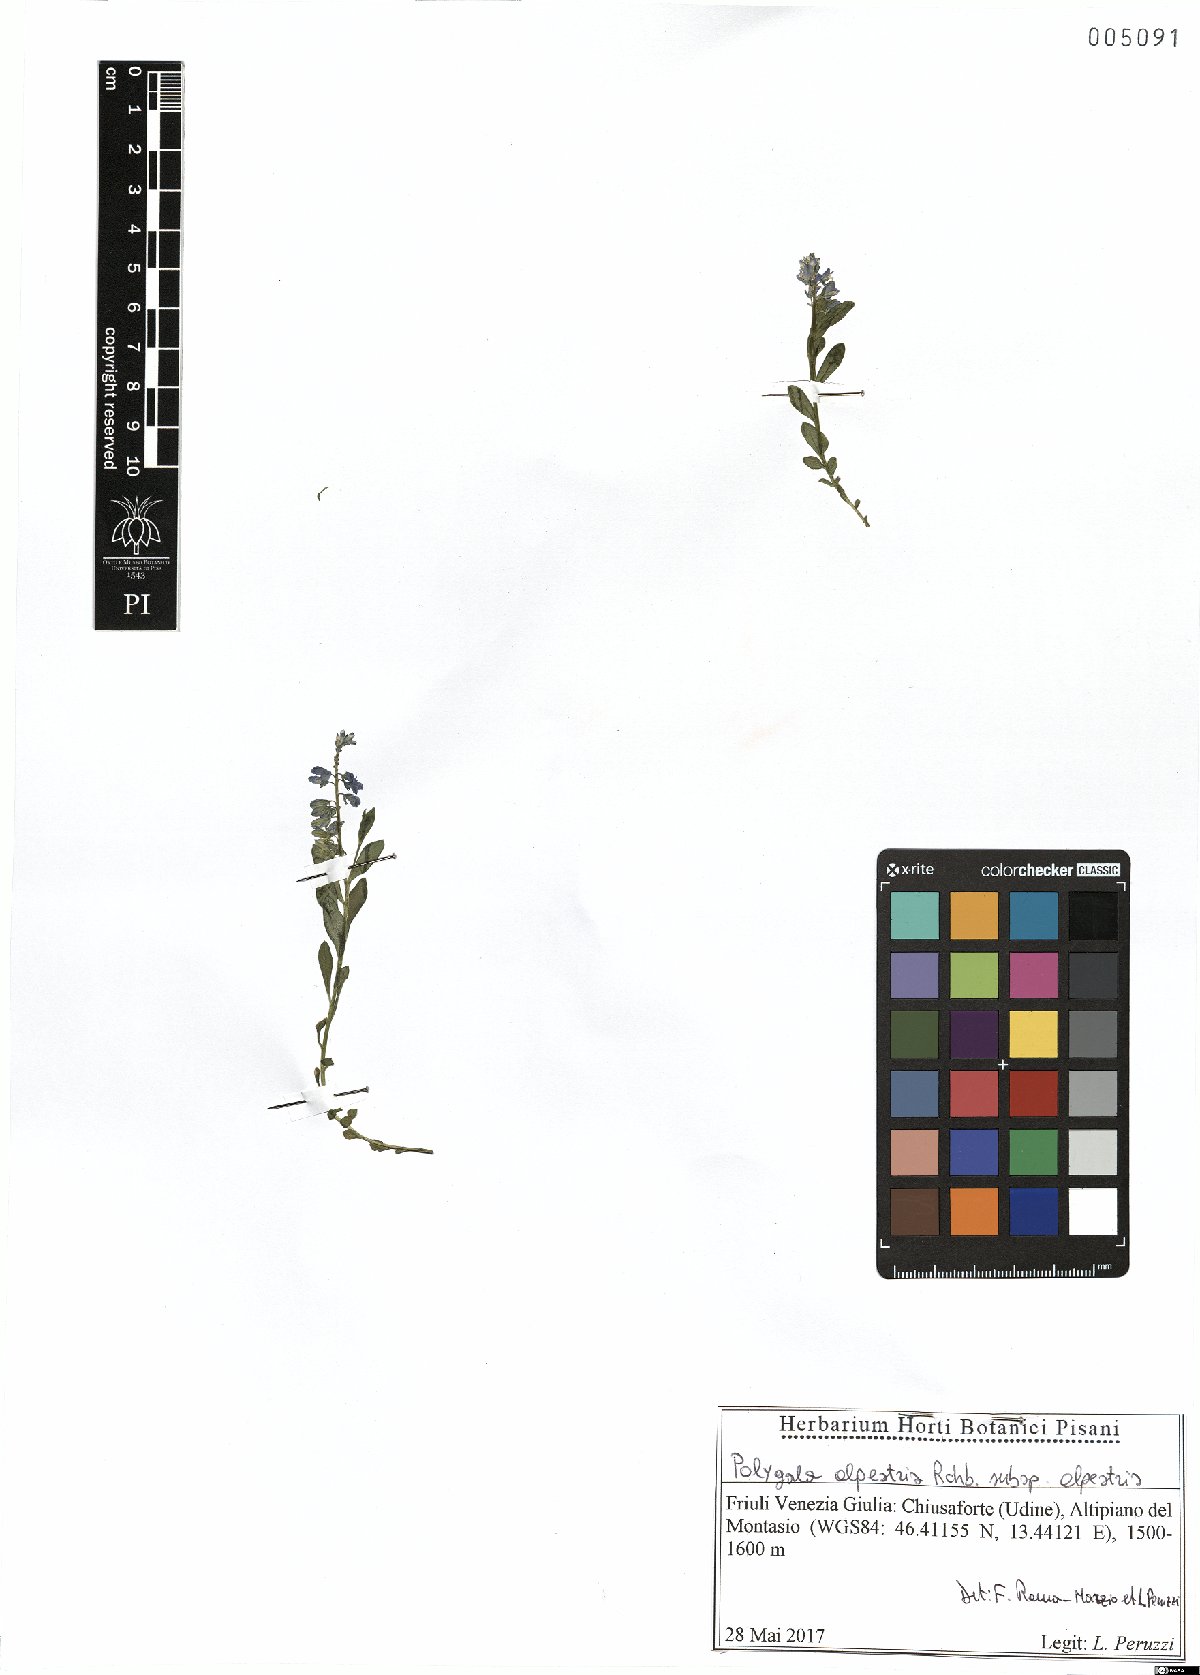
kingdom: Plantae
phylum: Tracheophyta
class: Magnoliopsida
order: Fabales
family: Polygalaceae
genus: Polygala
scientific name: Polygala alpestris
